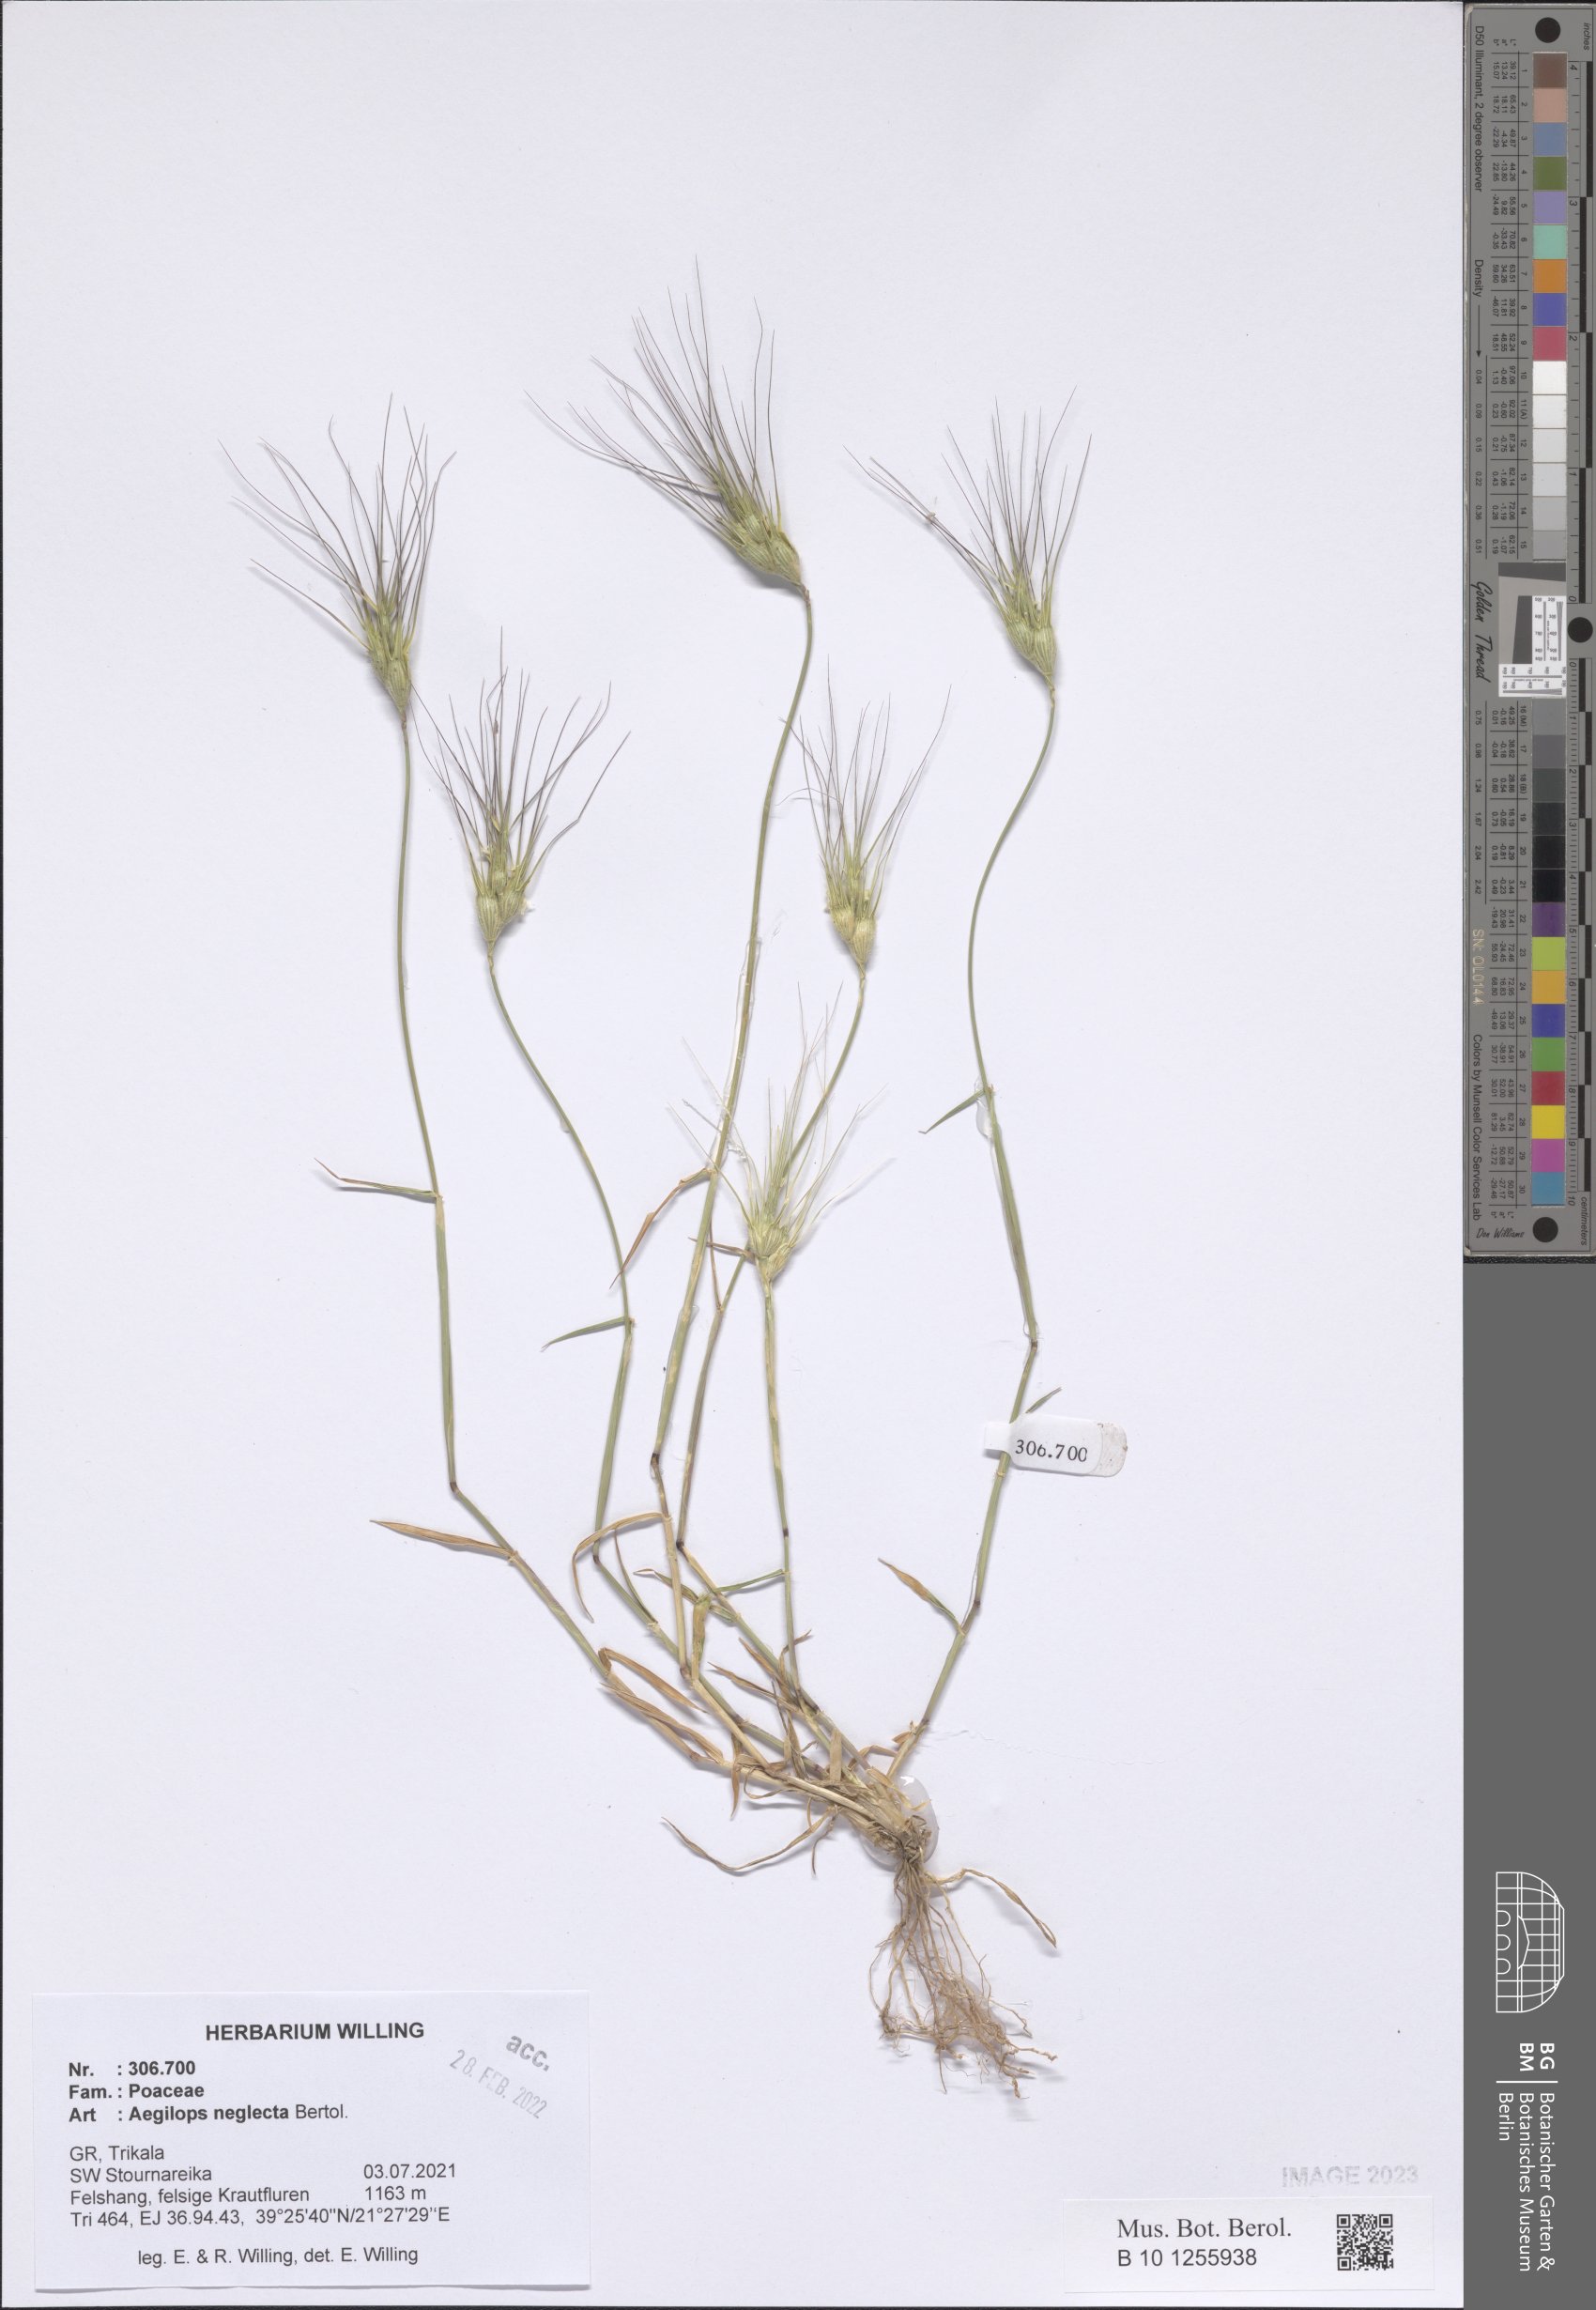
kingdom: Plantae
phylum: Tracheophyta
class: Liliopsida
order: Poales
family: Poaceae
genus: Aegilops
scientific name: Aegilops neglecta
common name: Three-awn goat grass
